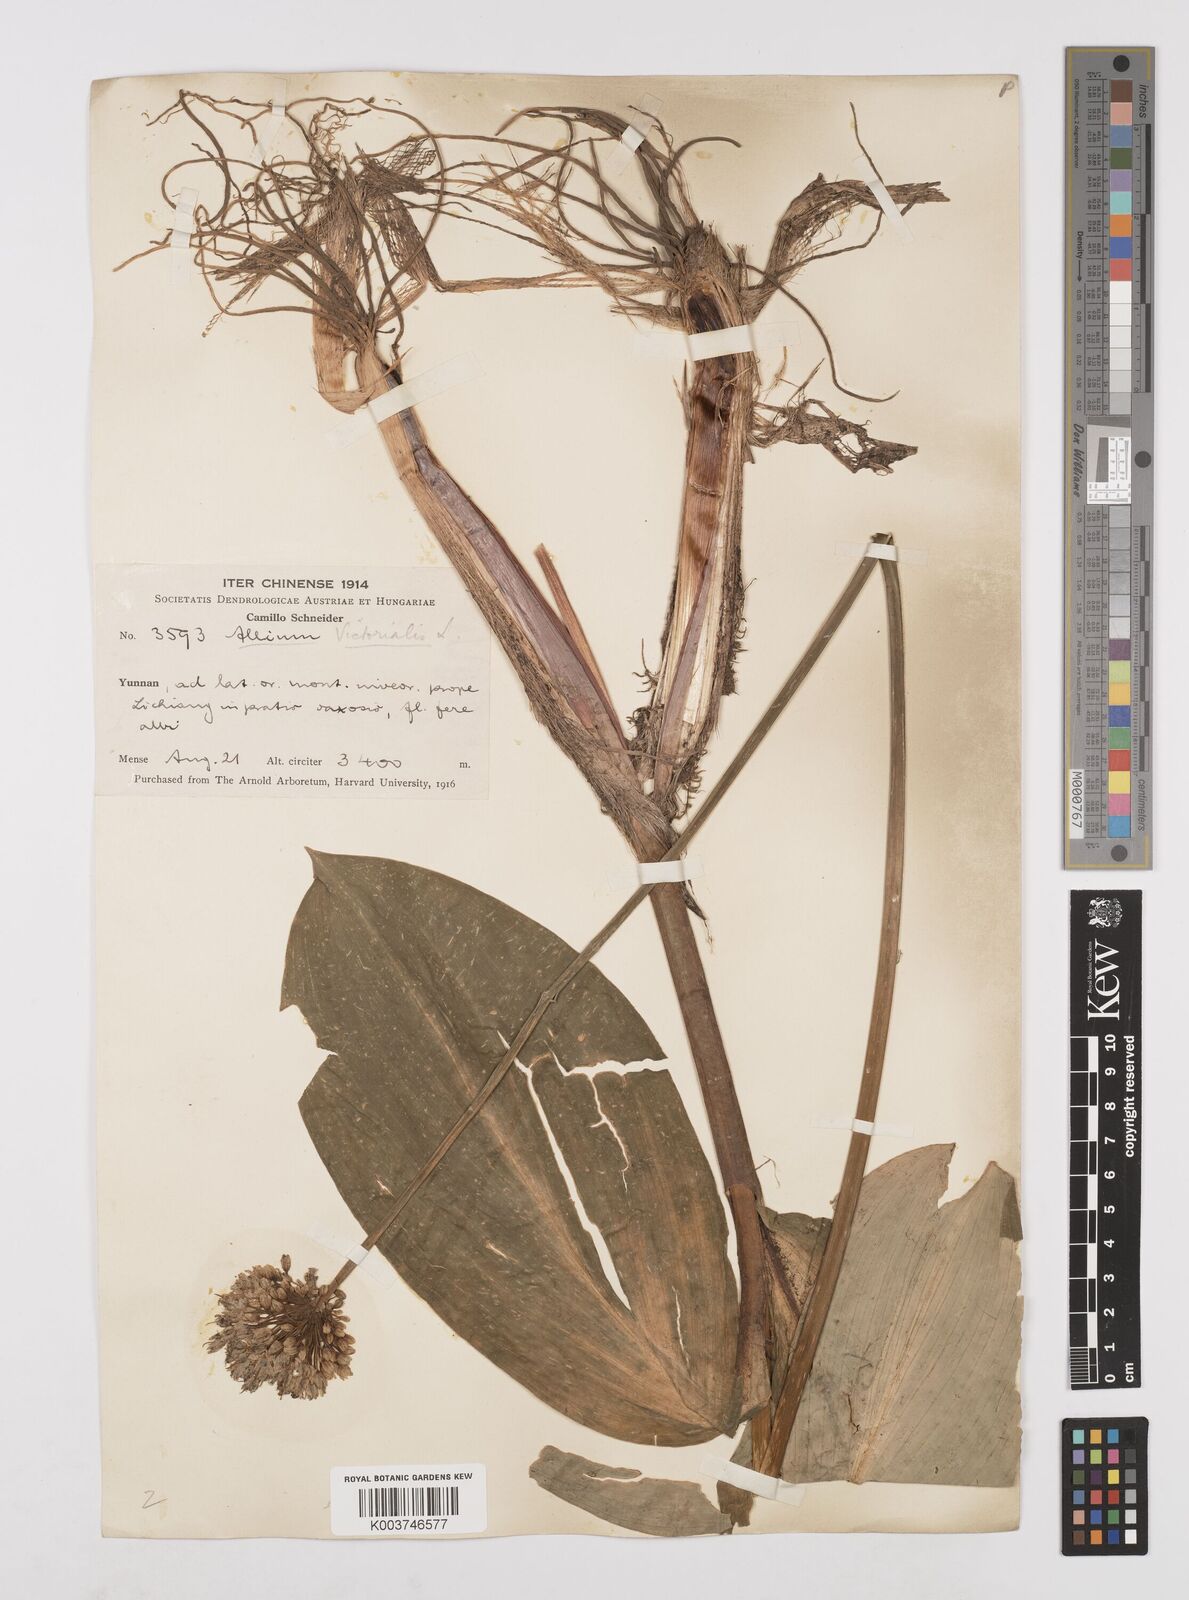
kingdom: Plantae
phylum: Tracheophyta
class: Liliopsida
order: Asparagales
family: Amaryllidaceae
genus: Allium
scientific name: Allium victorialis
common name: Alpine leek
